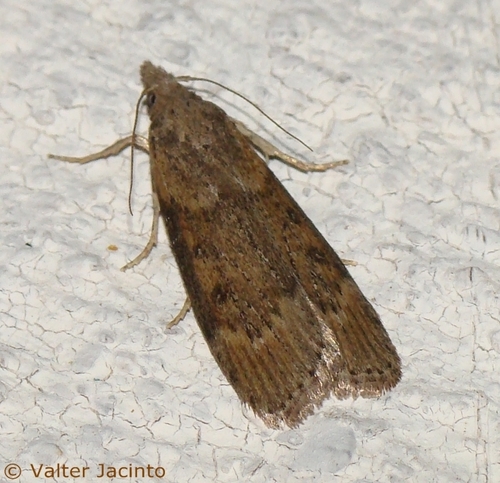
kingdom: Animalia
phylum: Arthropoda
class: Insecta
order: Lepidoptera
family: Pyralidae
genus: Lamoria
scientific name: Lamoria anella
